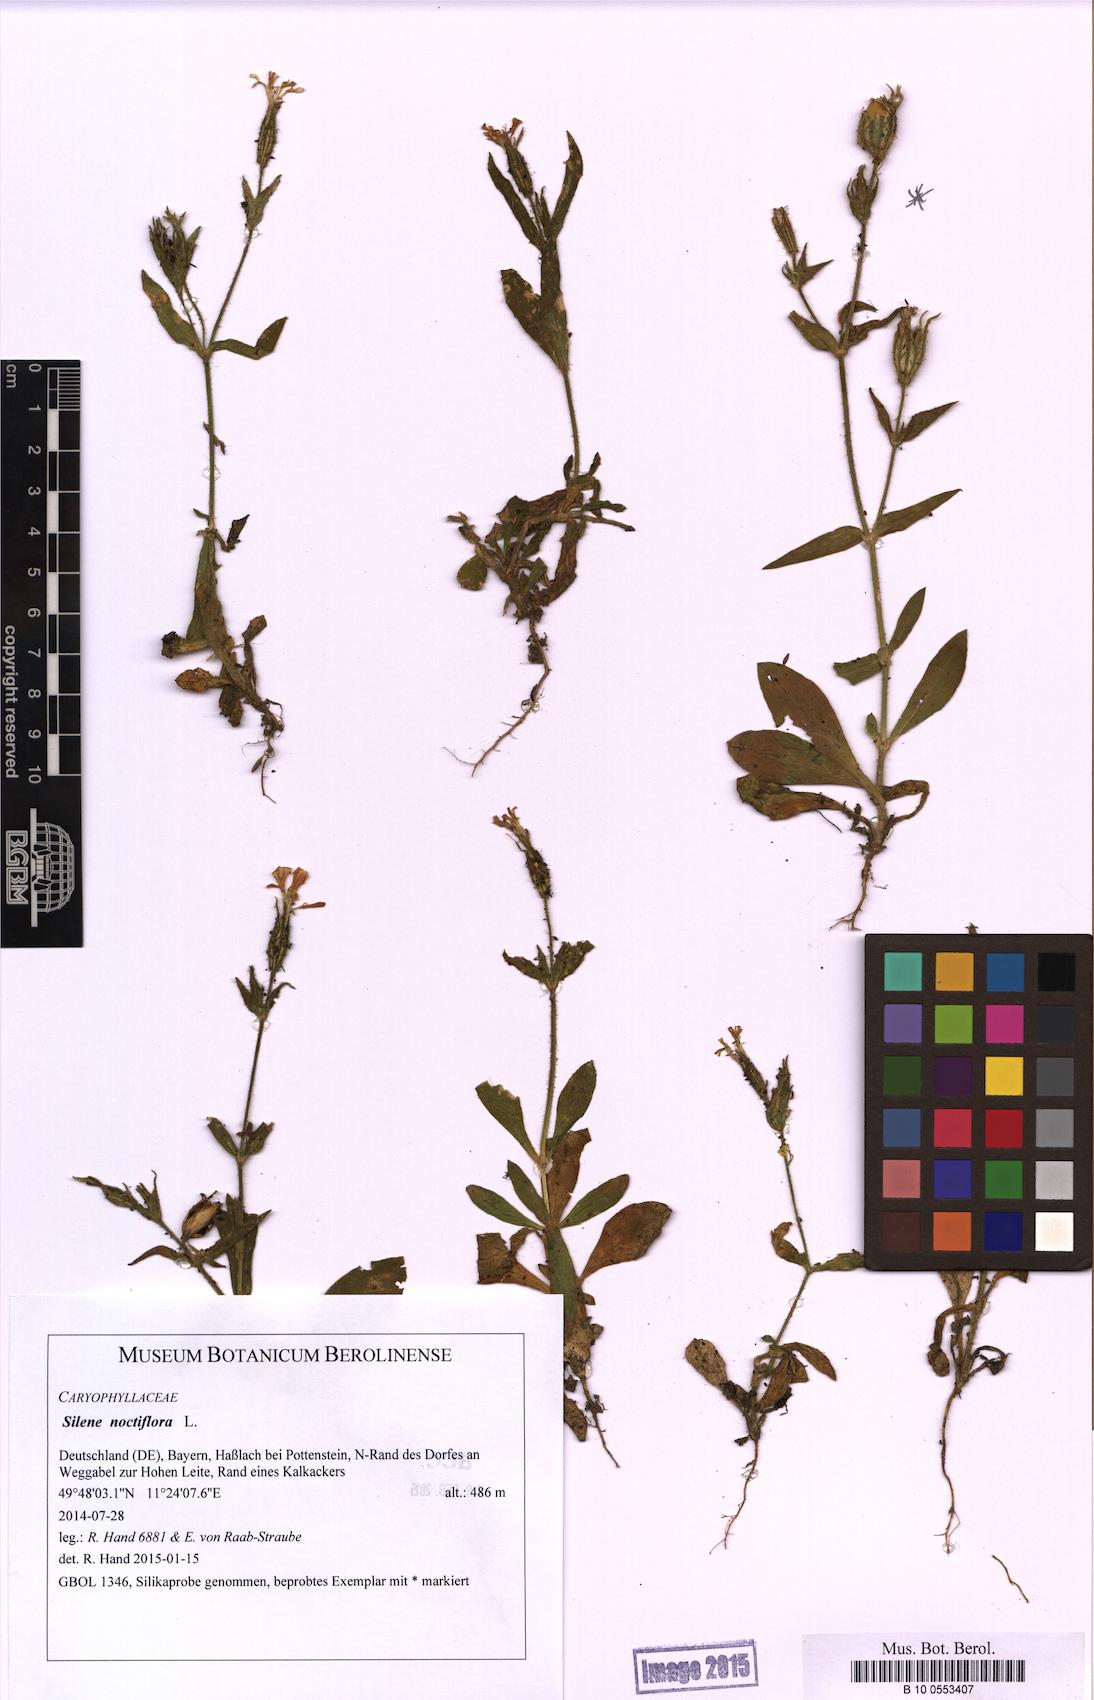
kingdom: Plantae
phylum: Tracheophyta
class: Magnoliopsida
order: Caryophyllales
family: Caryophyllaceae
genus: Silene
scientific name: Silene noctiflora
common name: Night-flowering catchfly
